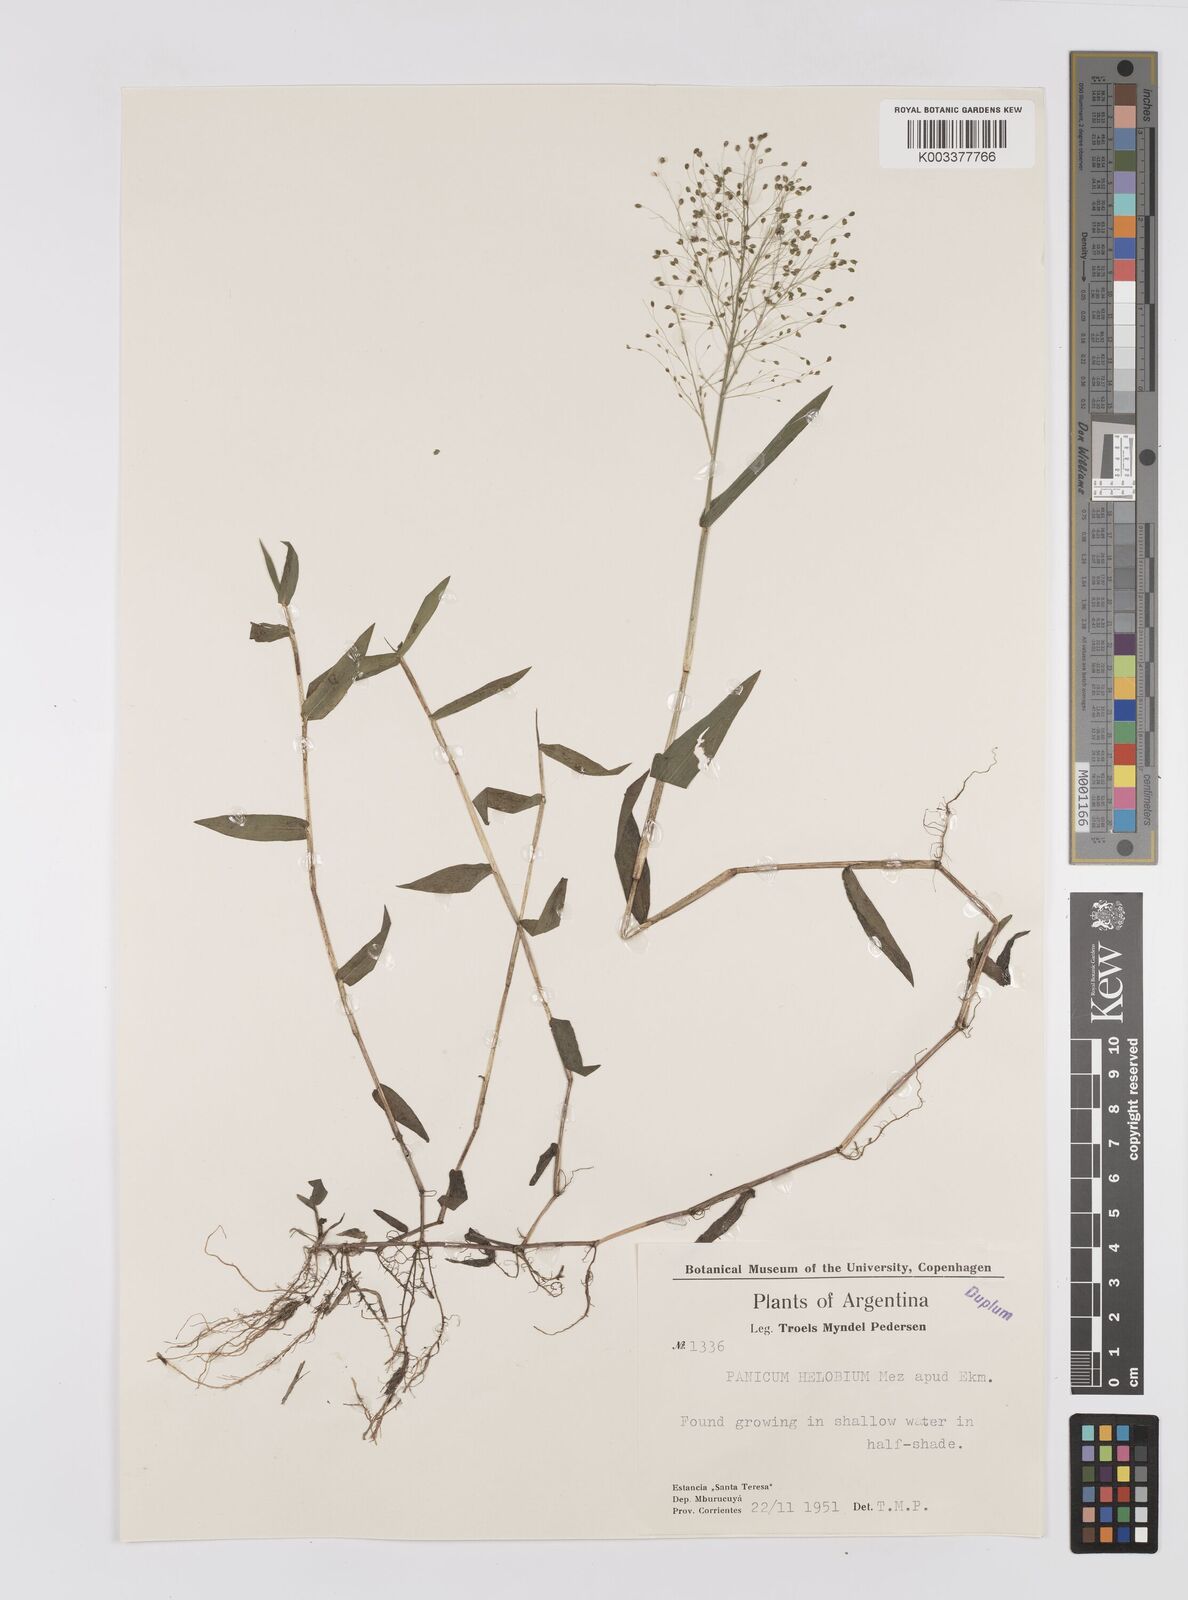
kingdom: Plantae
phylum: Tracheophyta
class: Liliopsida
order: Poales
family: Poaceae
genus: Trichanthecium
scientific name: Trichanthecium schwackeanum
